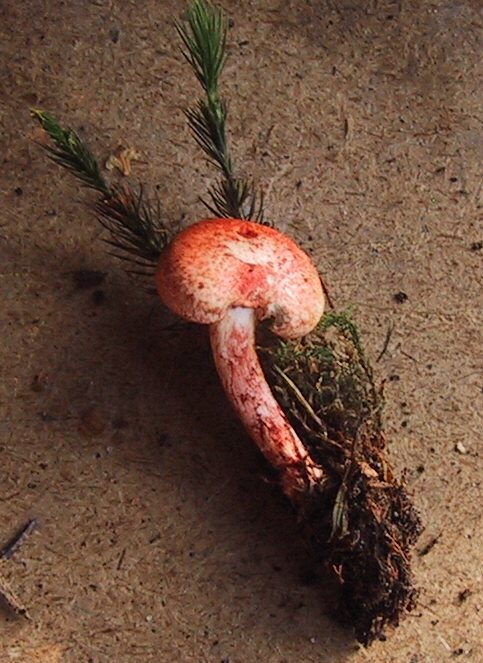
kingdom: Fungi
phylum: Basidiomycota
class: Agaricomycetes
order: Agaricales
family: Cortinariaceae
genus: Cortinarius
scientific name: Cortinarius bolaris
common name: cinnoberskællet slørhat
